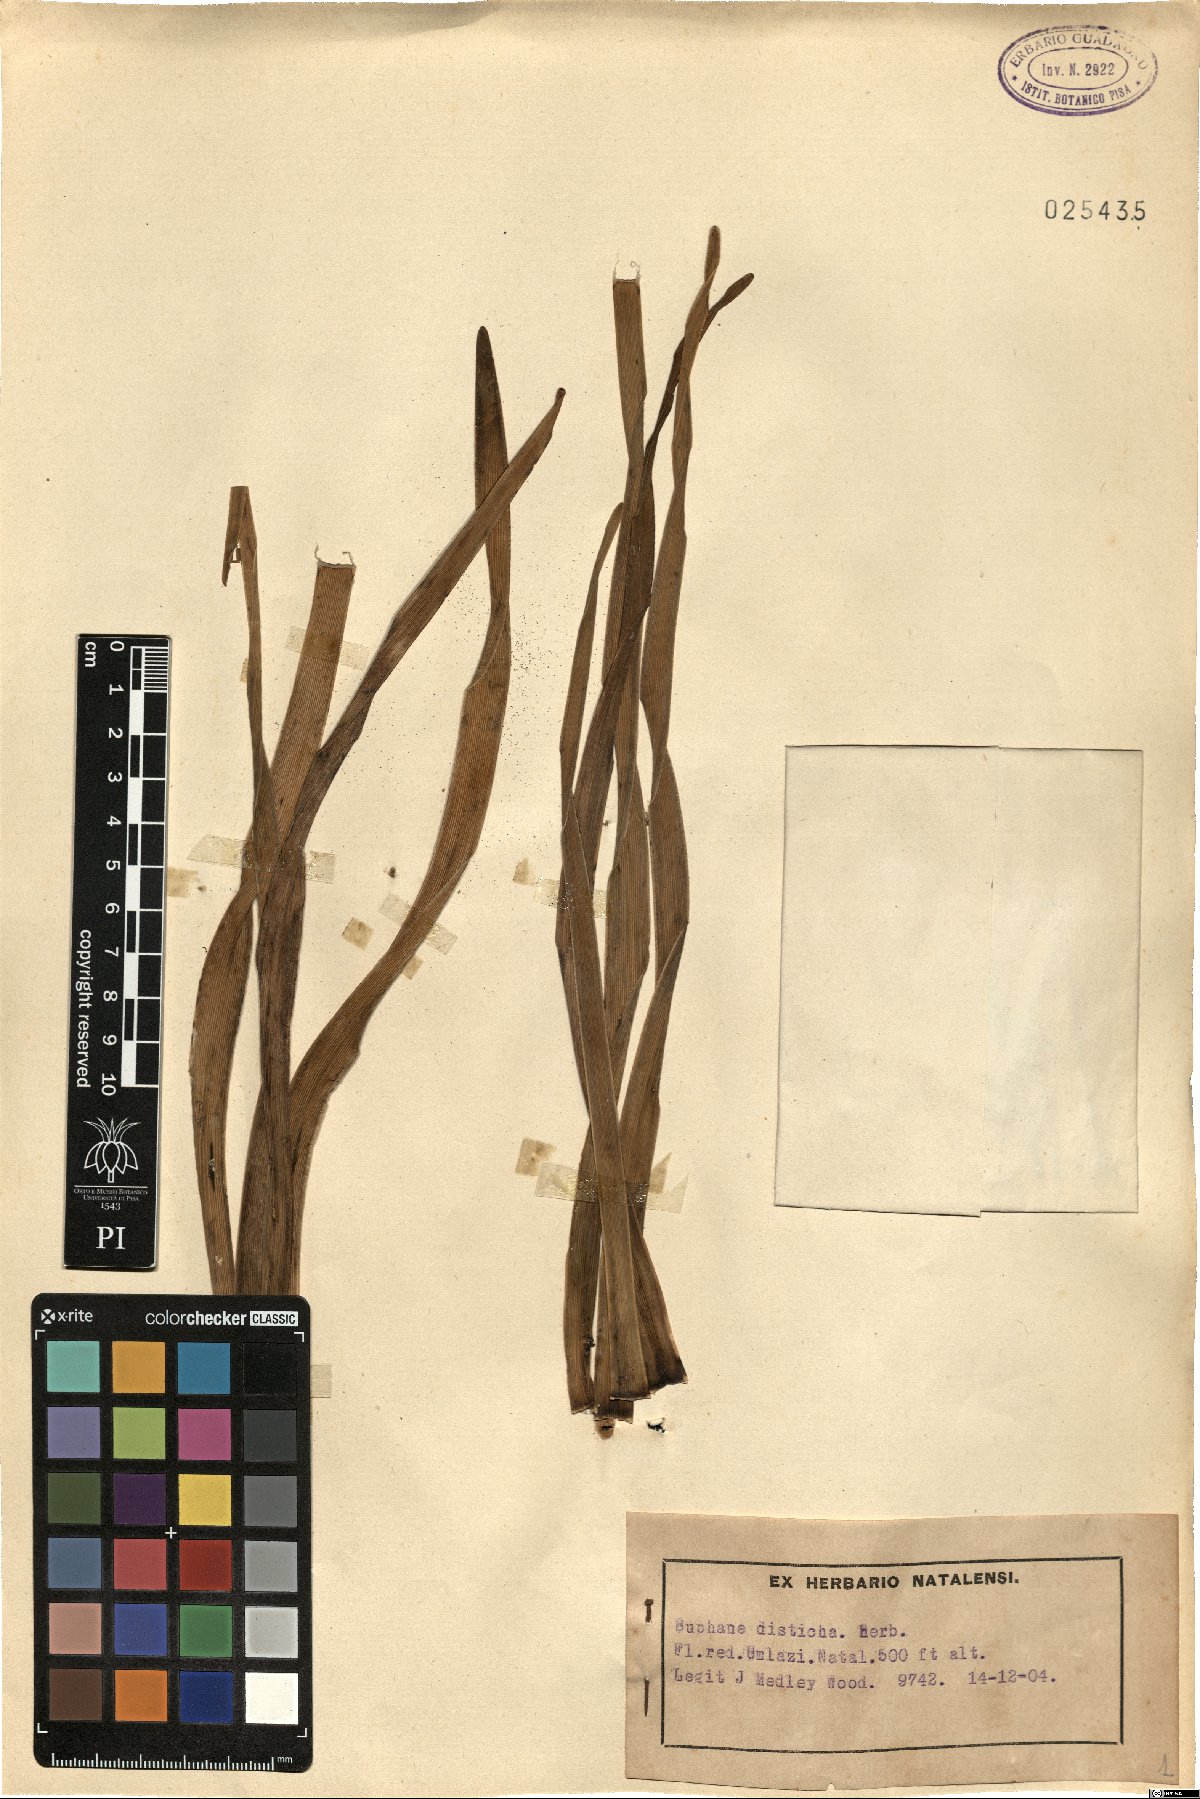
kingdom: Plantae
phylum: Tracheophyta
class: Liliopsida
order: Asparagales
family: Amaryllidaceae
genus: Boophone
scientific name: Boophone disticha
